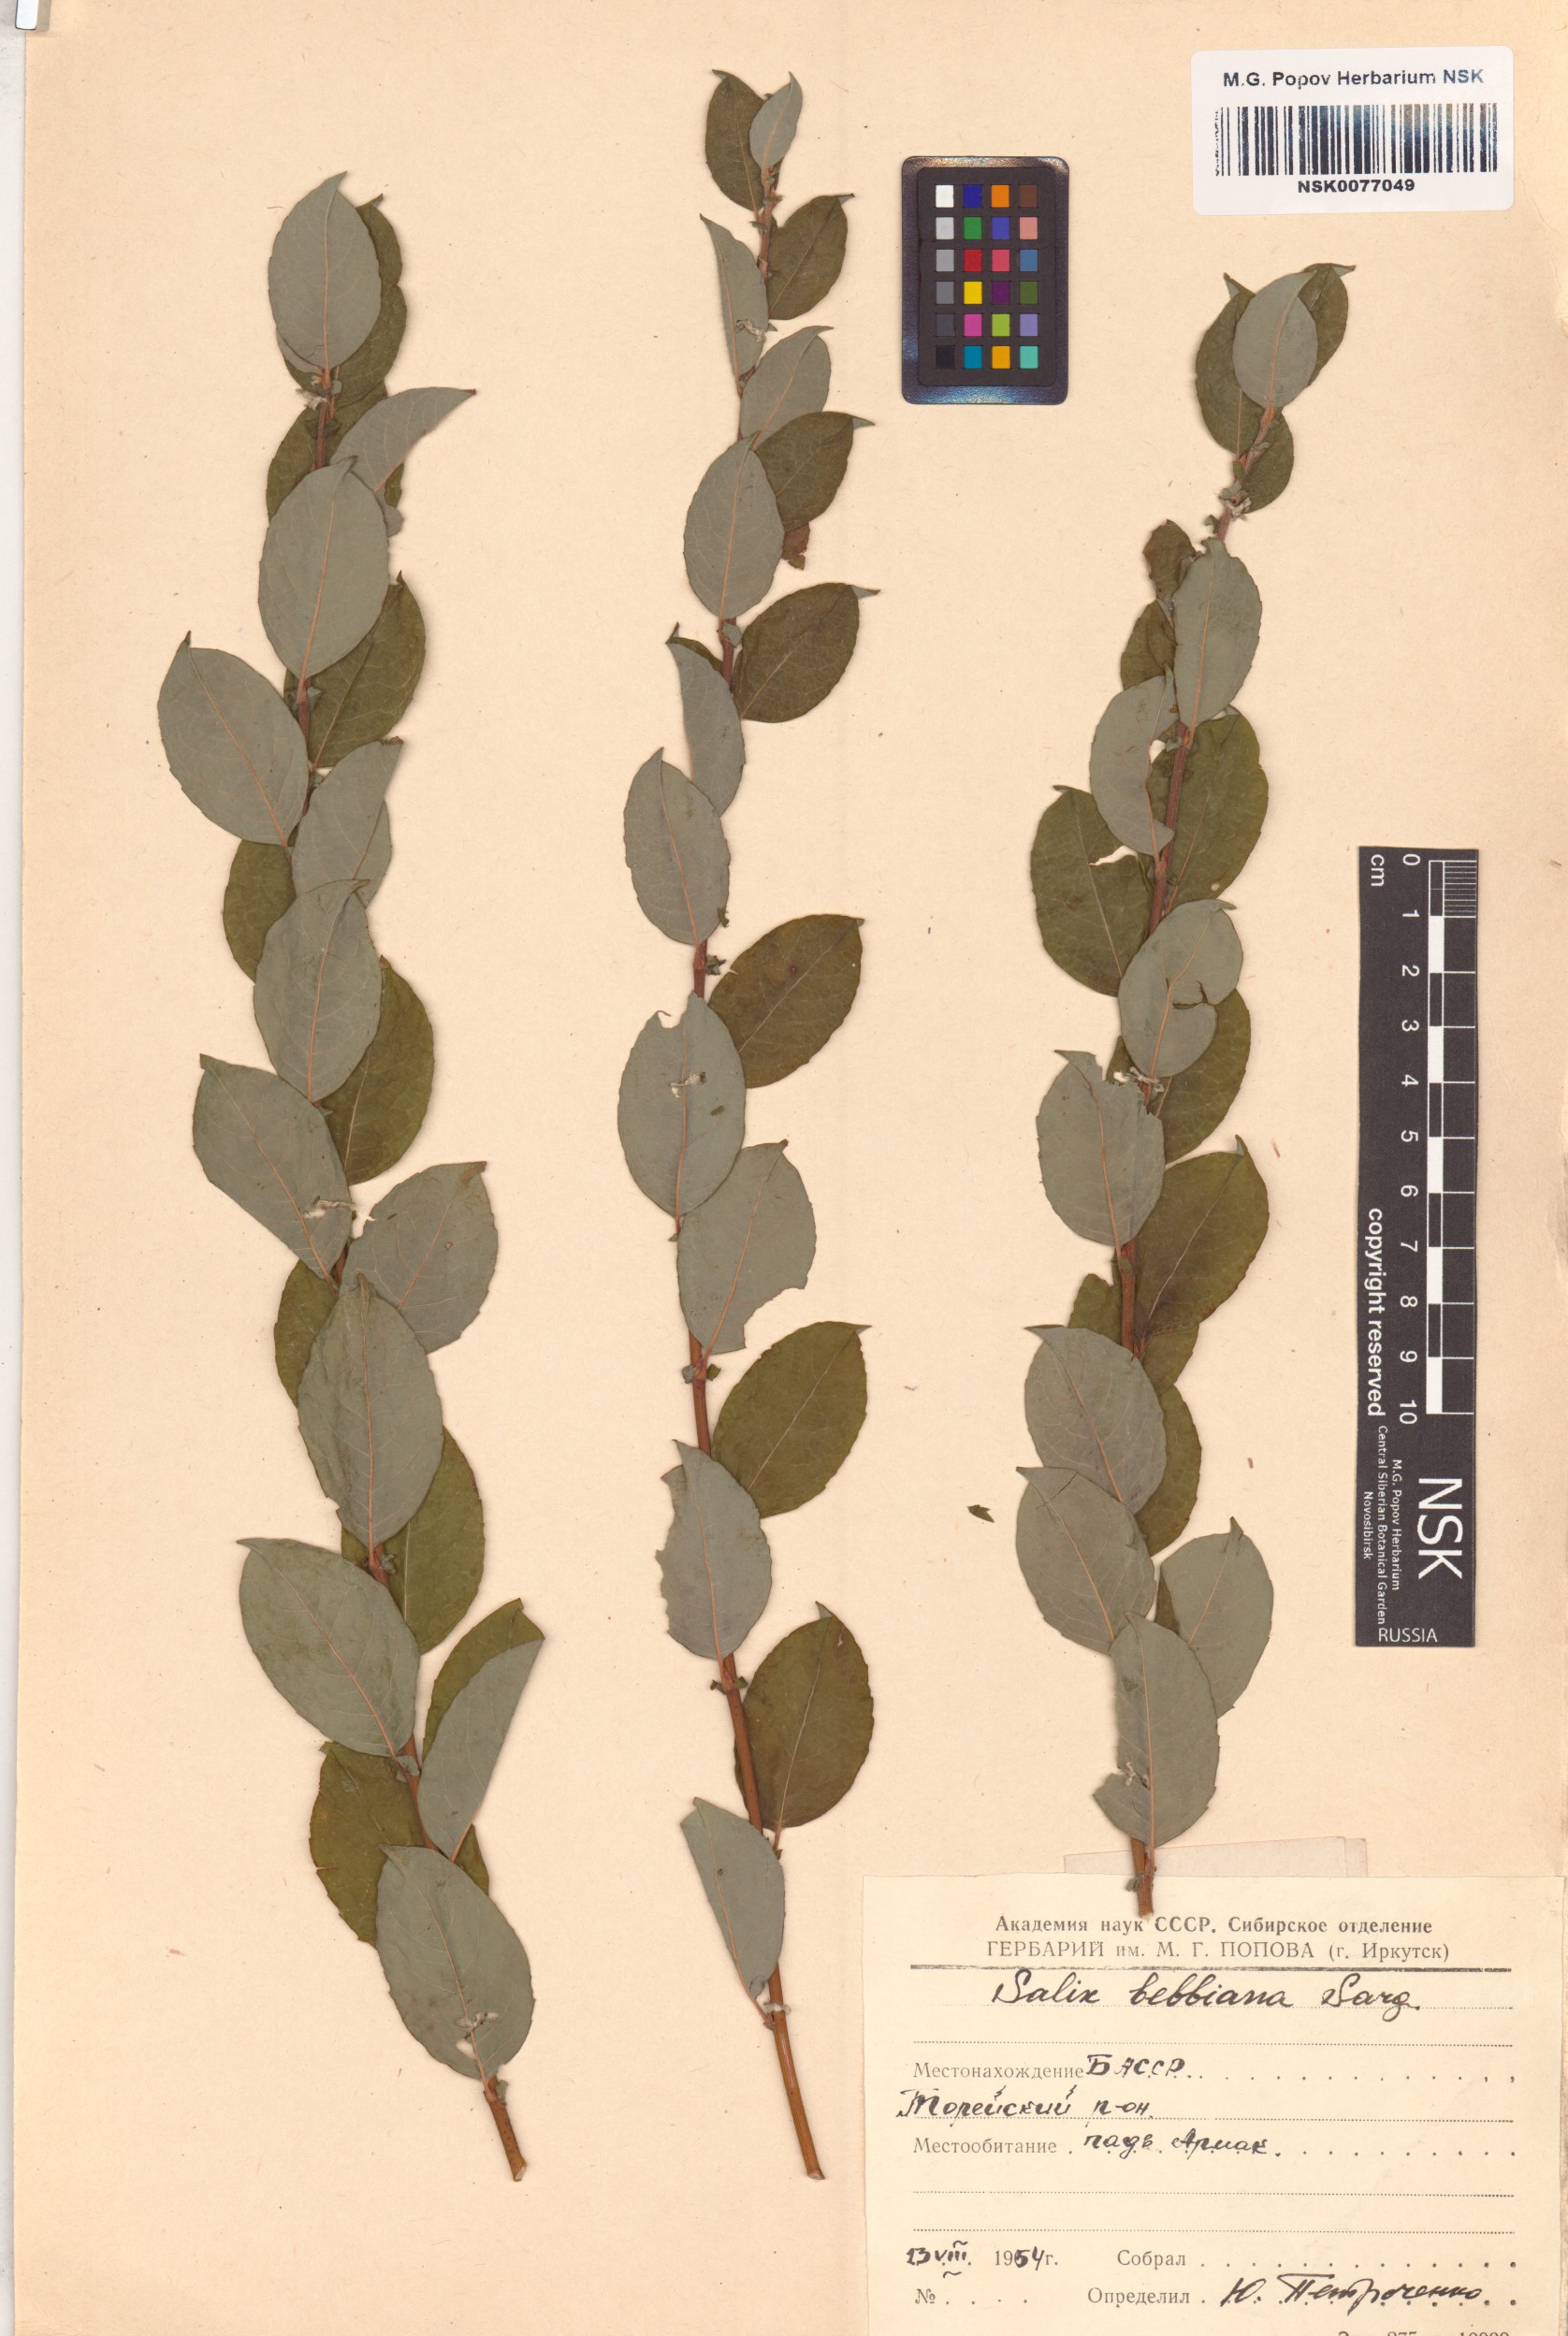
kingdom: Plantae
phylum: Tracheophyta
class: Magnoliopsida
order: Malpighiales
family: Salicaceae
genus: Salix
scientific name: Salix bebbiana
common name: Bebb's willow
